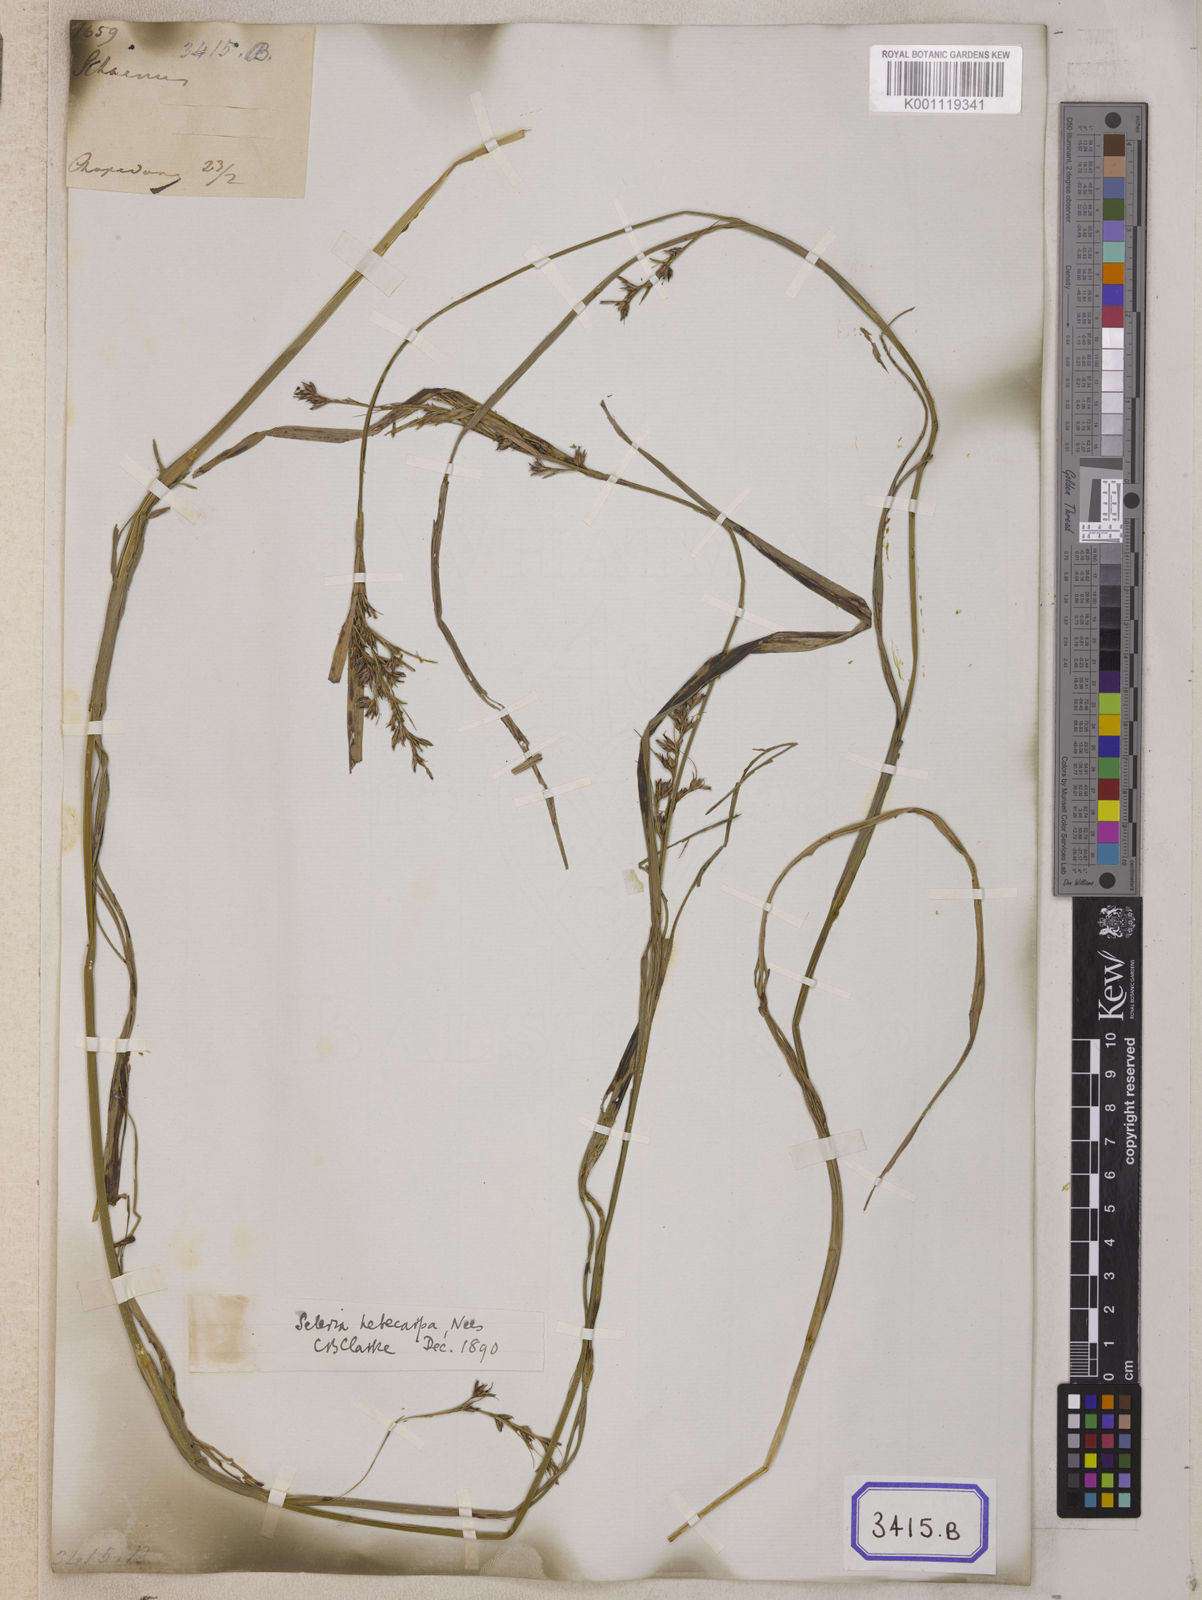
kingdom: Plantae
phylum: Tracheophyta
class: Liliopsida
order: Poales
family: Cyperaceae
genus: Scleria
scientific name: Scleria
